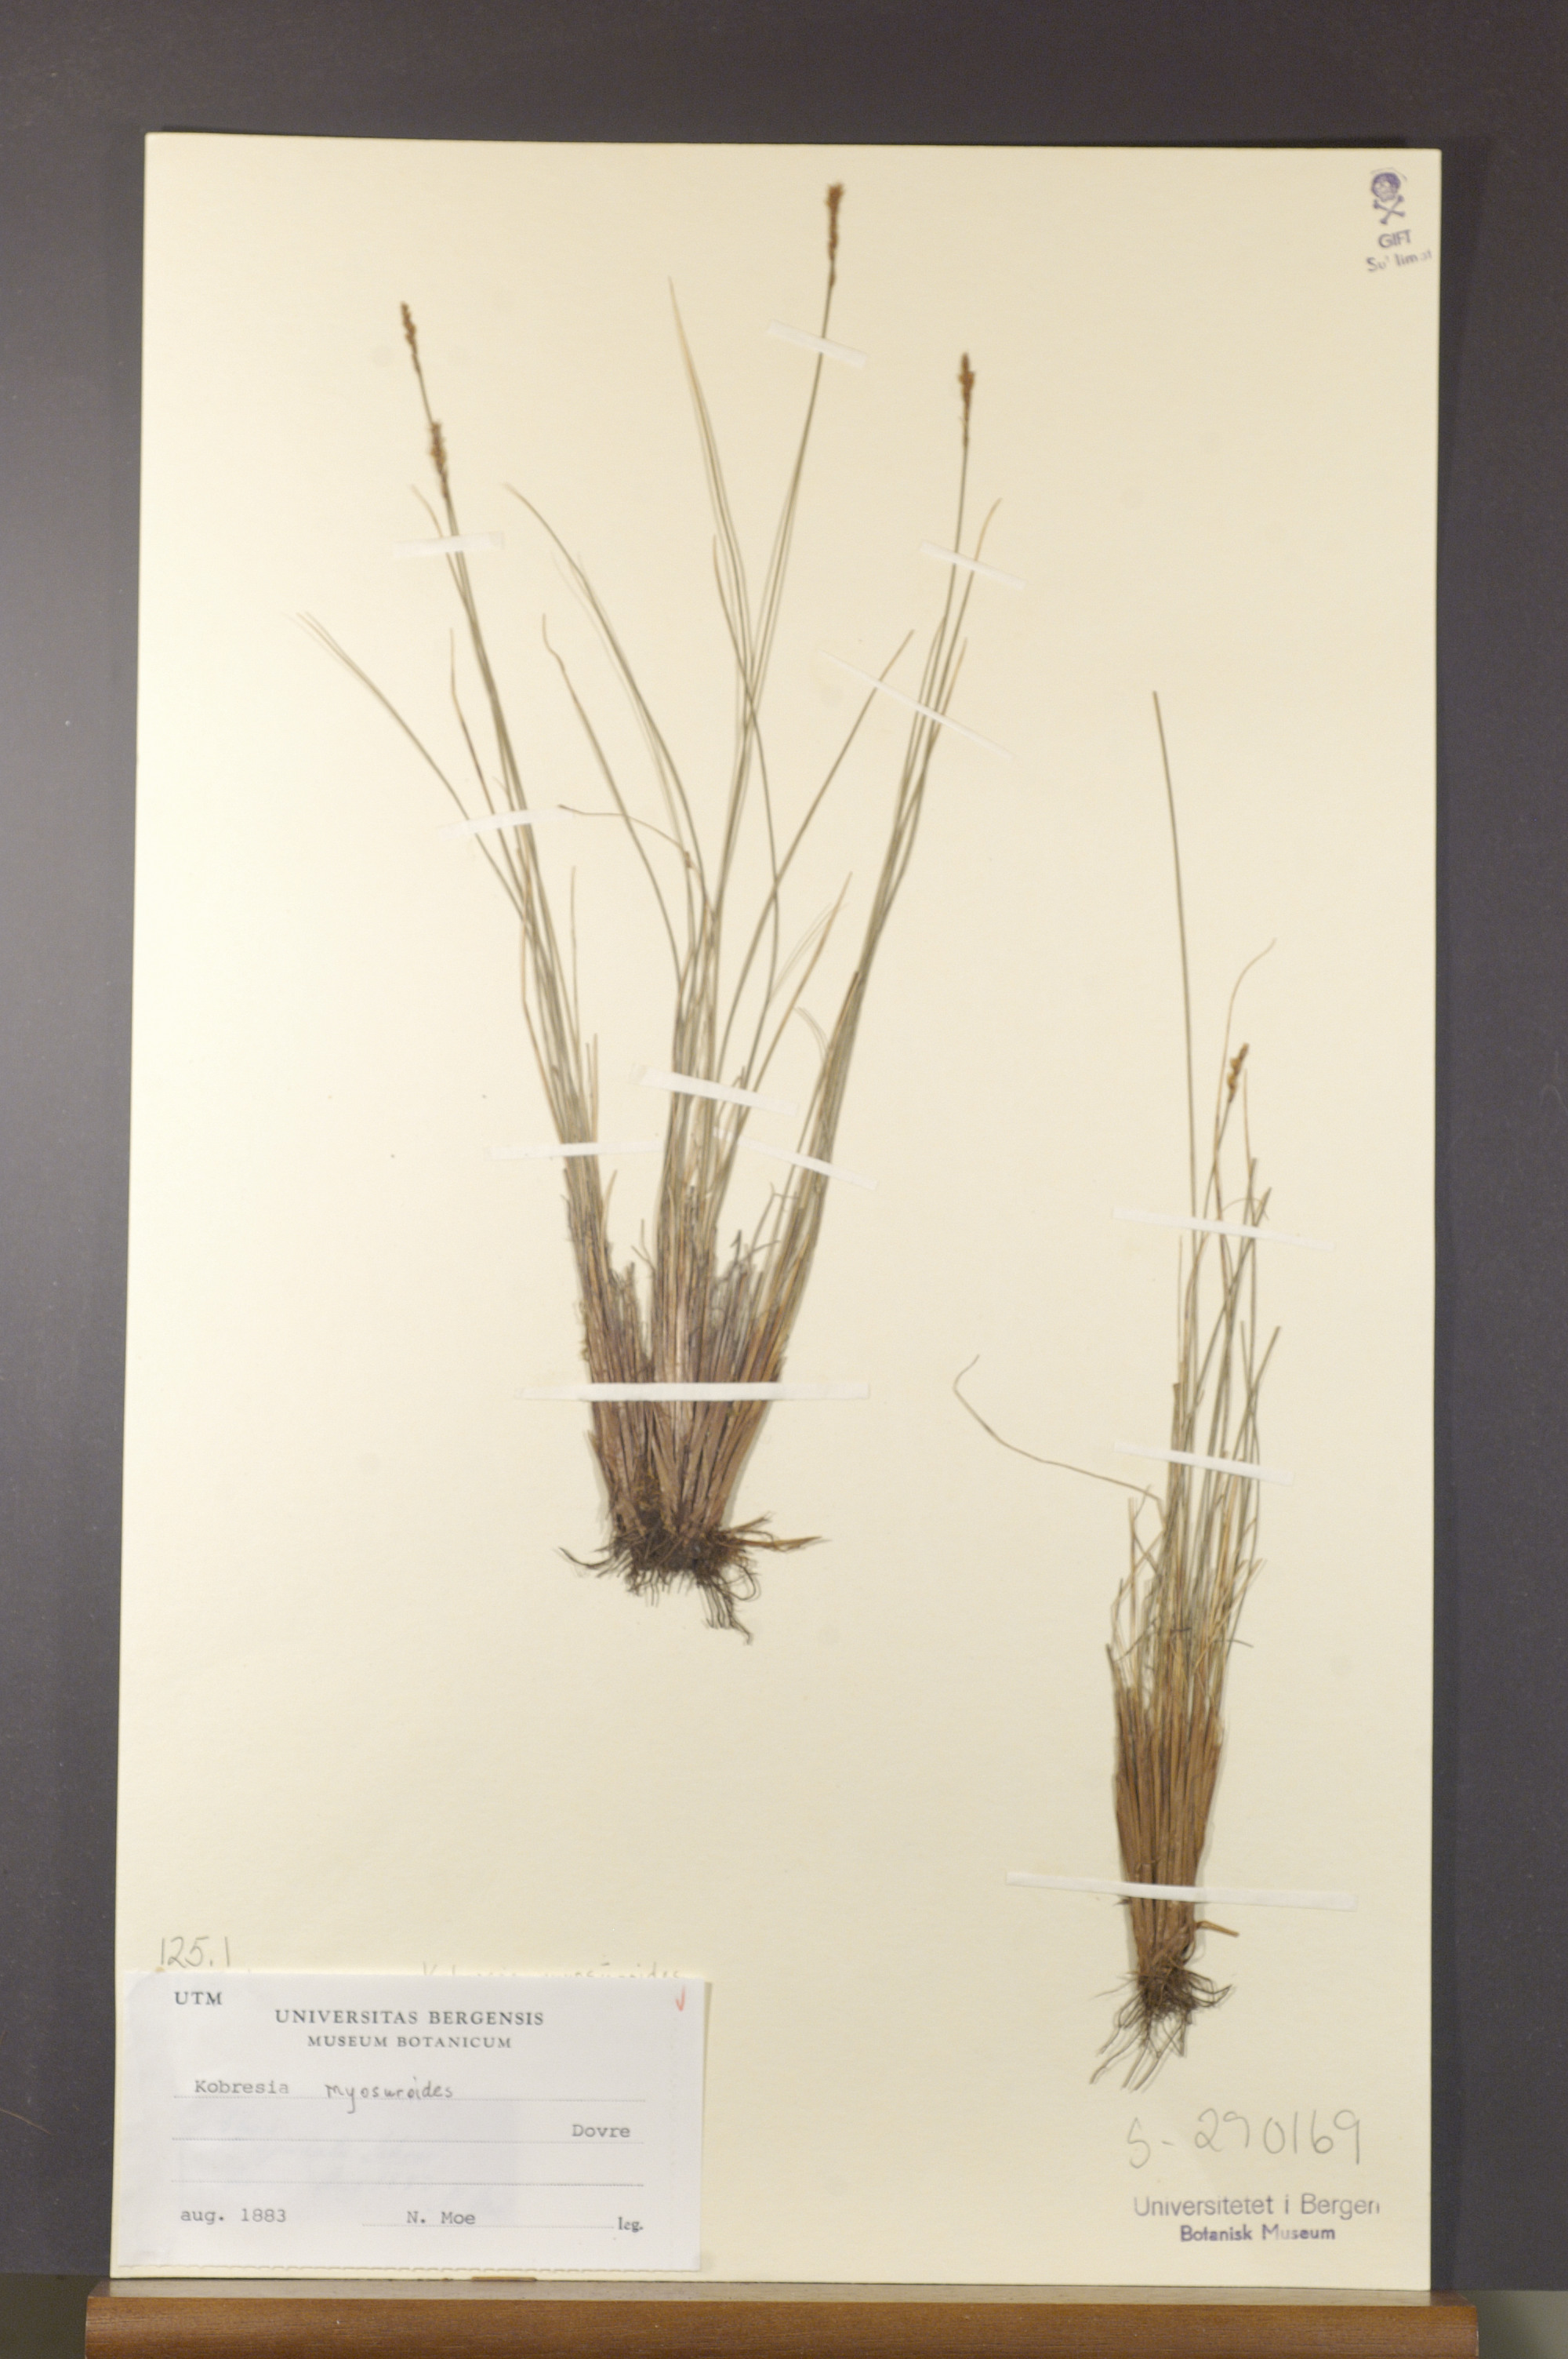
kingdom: Plantae
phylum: Tracheophyta
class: Liliopsida
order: Poales
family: Cyperaceae
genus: Carex
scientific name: Carex myosuroides
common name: Bellard's bog sedge
